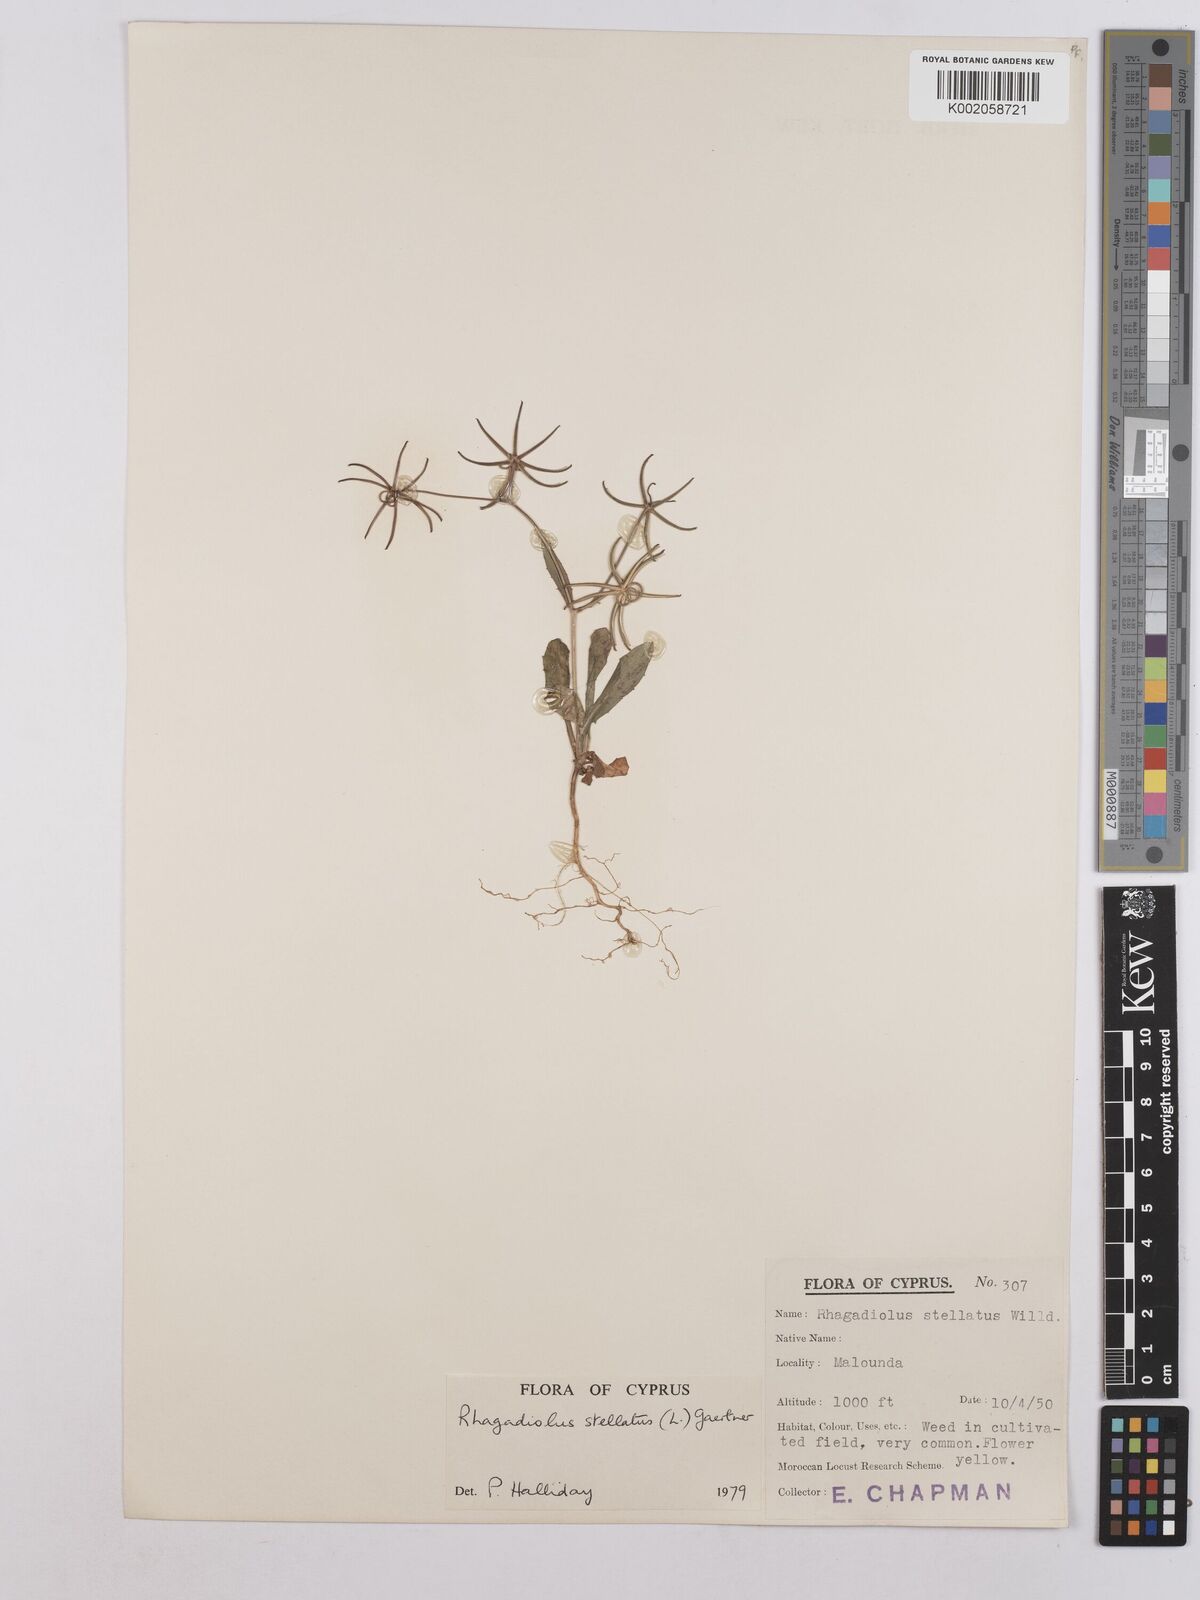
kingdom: Plantae
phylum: Tracheophyta
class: Magnoliopsida
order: Asterales
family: Asteraceae
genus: Rhagadiolus
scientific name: Rhagadiolus stellatus
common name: Star hawkbit
